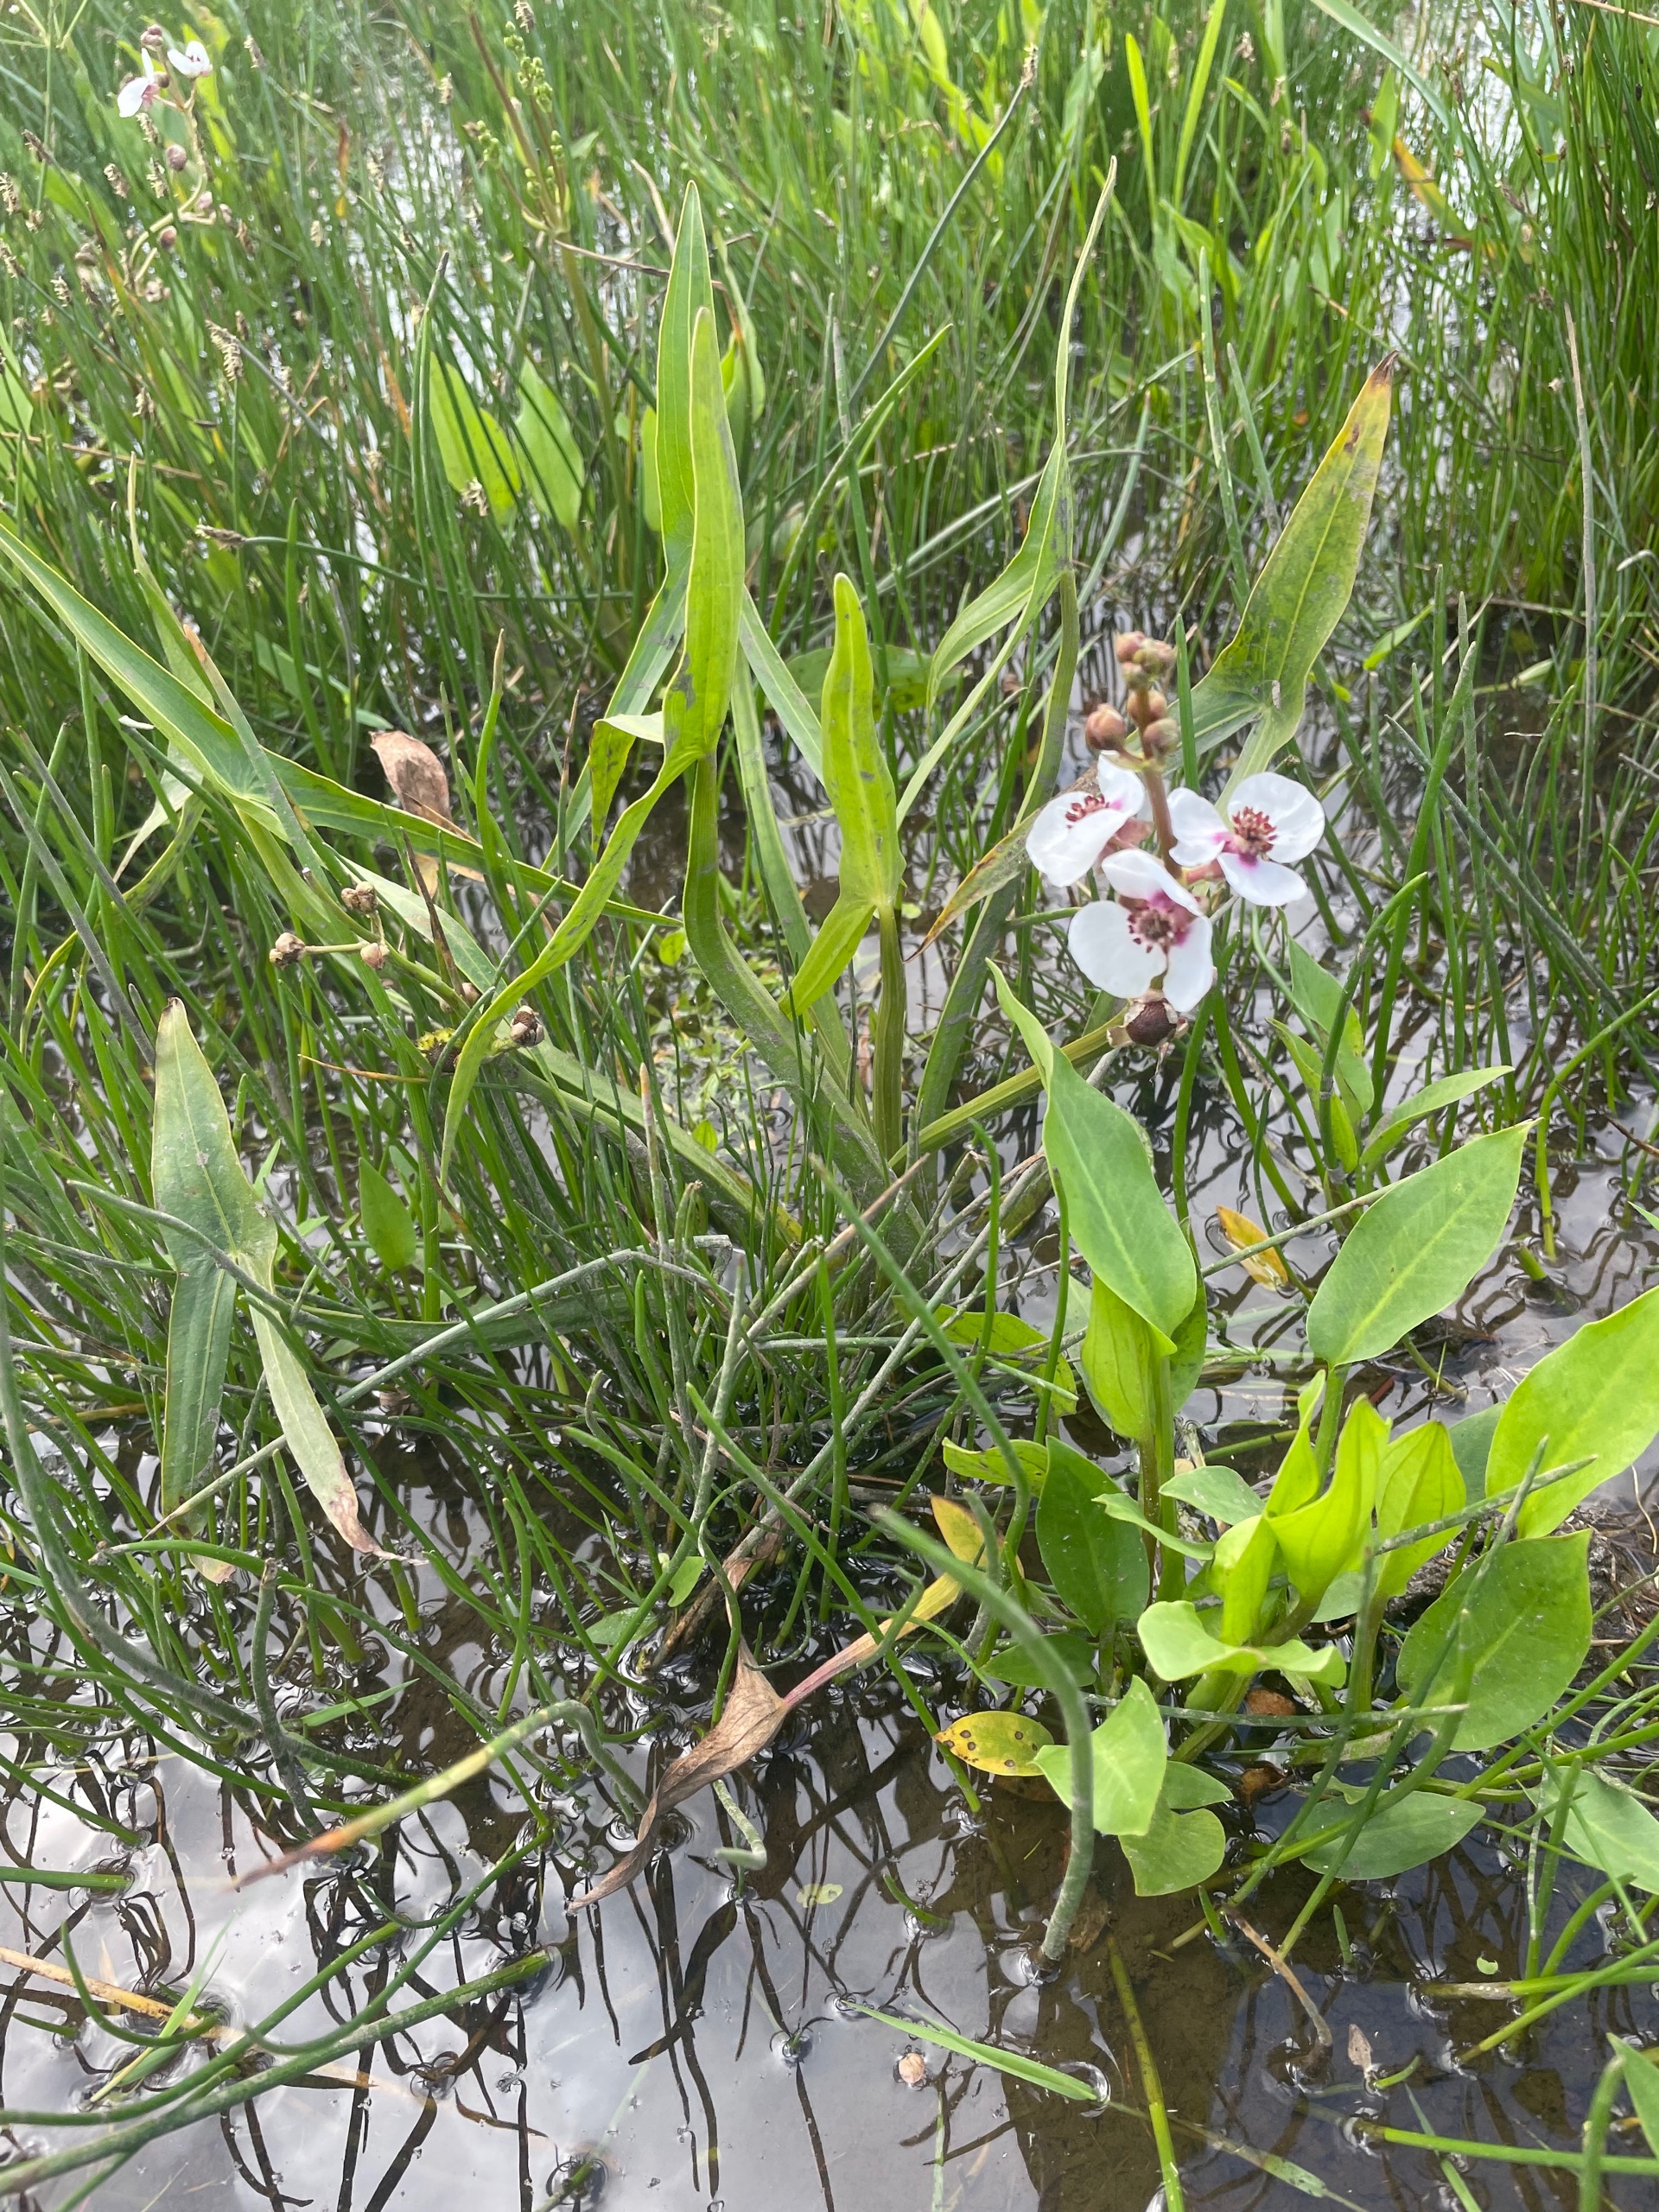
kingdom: Plantae
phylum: Tracheophyta
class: Liliopsida
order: Alismatales
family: Alismataceae
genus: Sagittaria
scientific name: Sagittaria sagittifolia
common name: Pilblad
